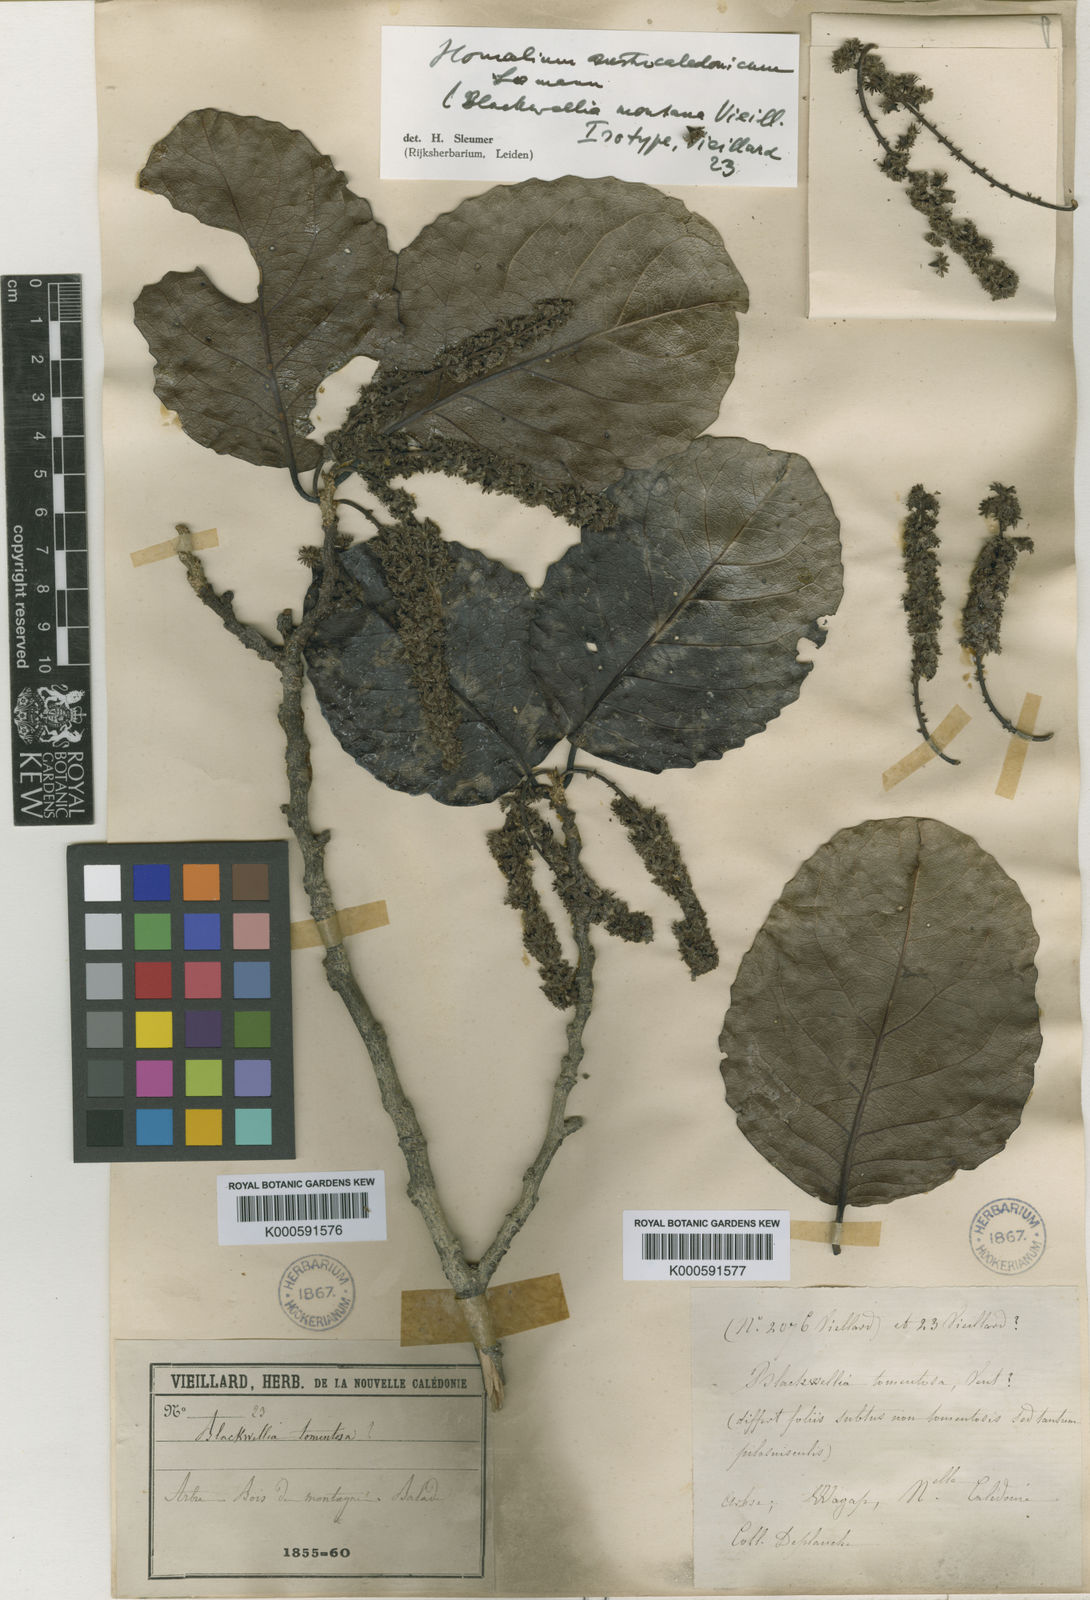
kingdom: Plantae
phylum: Tracheophyta
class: Magnoliopsida
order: Malpighiales
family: Salicaceae
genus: Homalium
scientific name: Homalium austrocaledonicum
